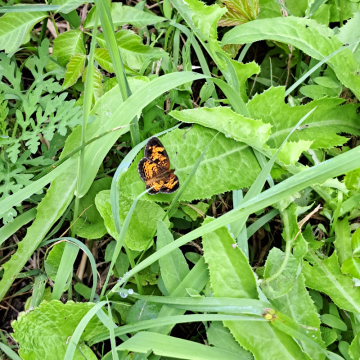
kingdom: Animalia
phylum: Arthropoda
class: Insecta
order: Lepidoptera
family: Nymphalidae
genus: Phyciodes
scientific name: Phyciodes tharos
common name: Pearl Crescent
